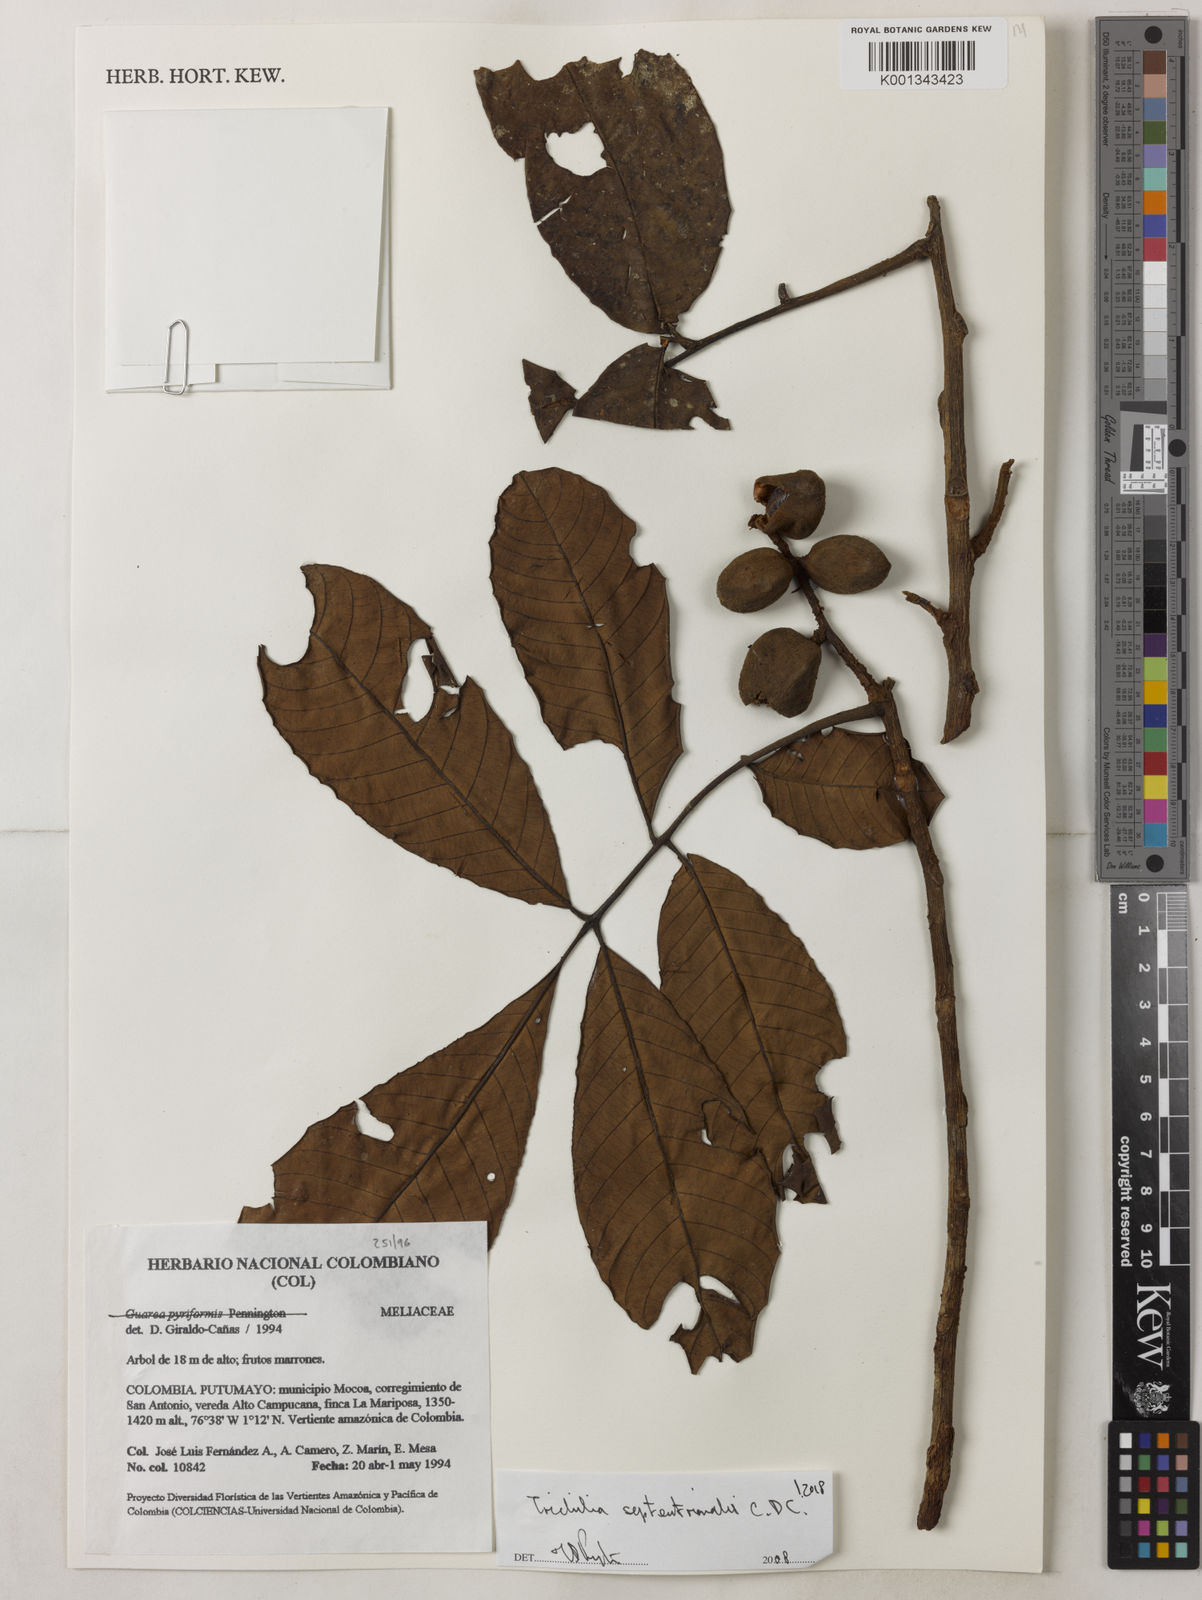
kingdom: Plantae
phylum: Tracheophyta
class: Magnoliopsida
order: Sapindales
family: Meliaceae
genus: Trichilia
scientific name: Trichilia septentrionalis
